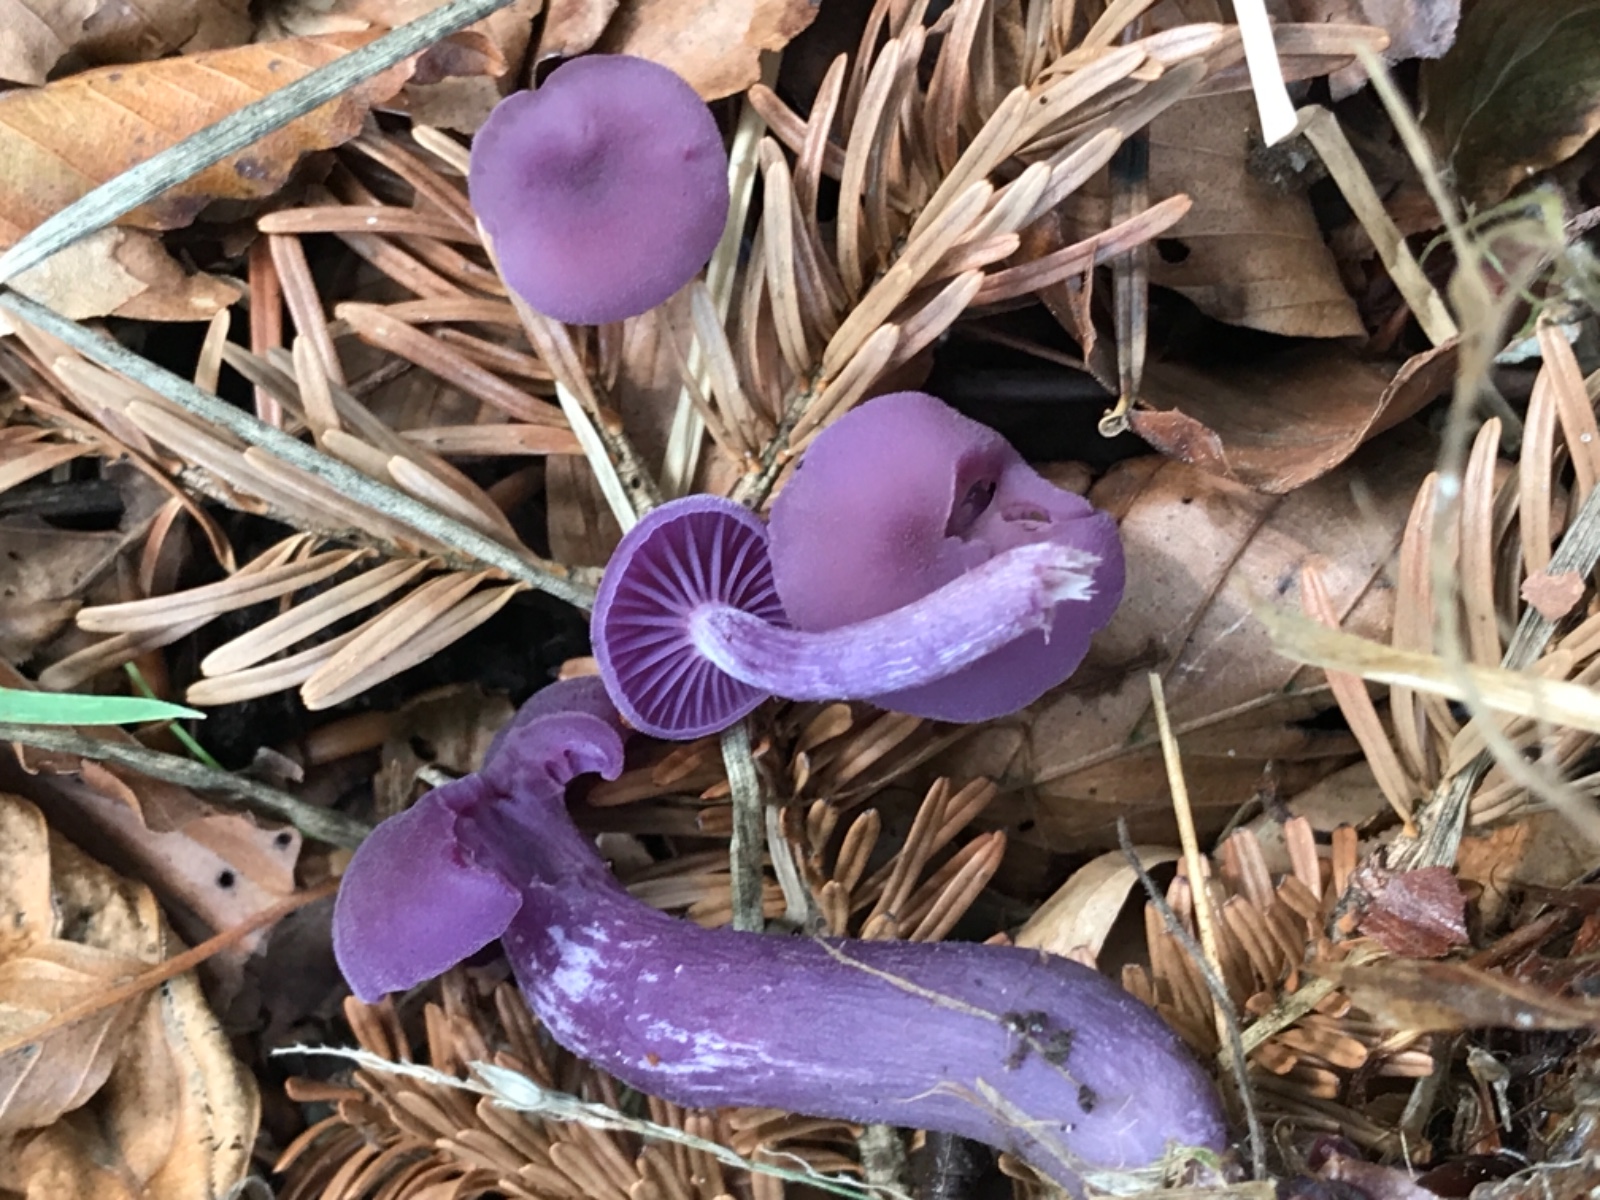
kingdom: Fungi
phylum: Basidiomycota
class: Agaricomycetes
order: Agaricales
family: Hydnangiaceae
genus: Laccaria
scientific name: Laccaria amethystina
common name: violet ametysthat
